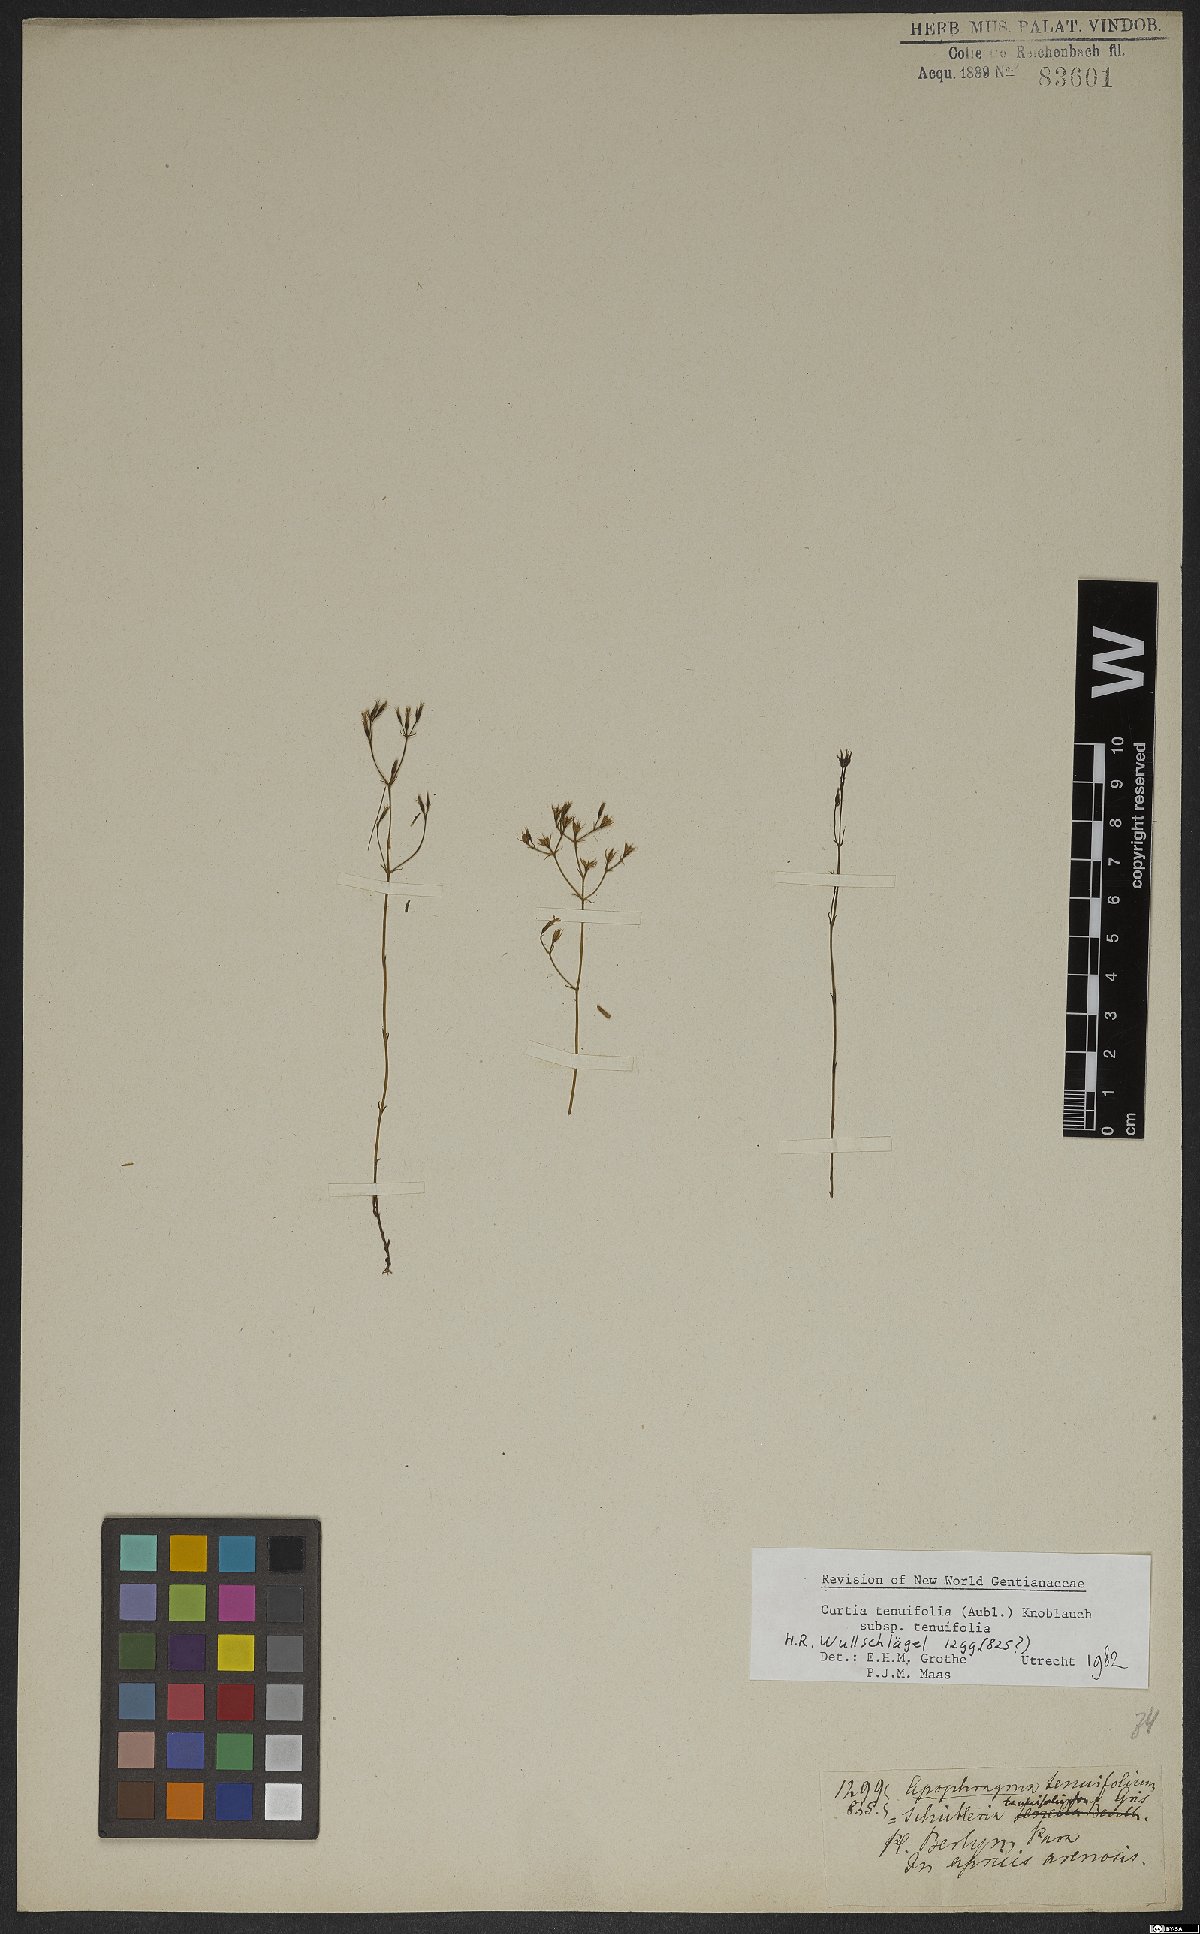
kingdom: Plantae
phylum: Tracheophyta
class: Magnoliopsida
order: Gentianales
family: Gentianaceae
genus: Curtia
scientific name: Curtia tenuifolia
